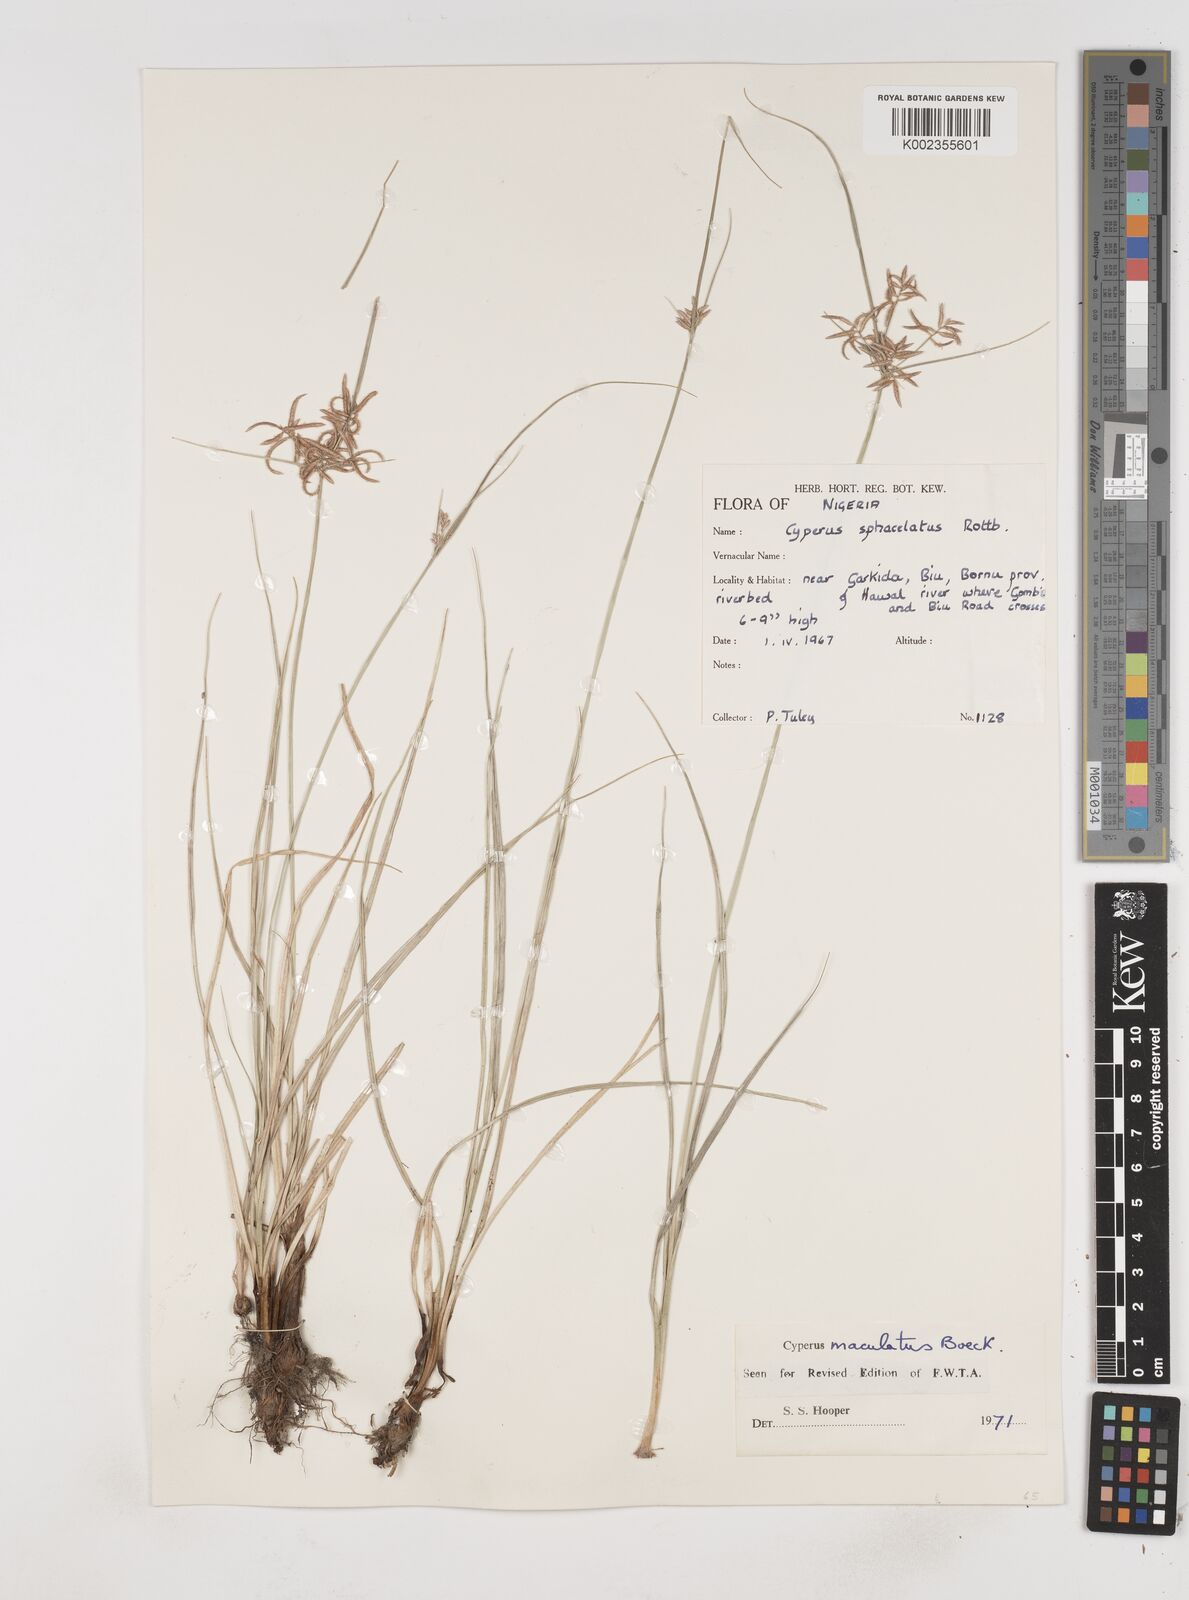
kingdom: Plantae
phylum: Tracheophyta
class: Liliopsida
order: Poales
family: Cyperaceae
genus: Cyperus
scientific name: Cyperus maculatus
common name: Maculated sedge
